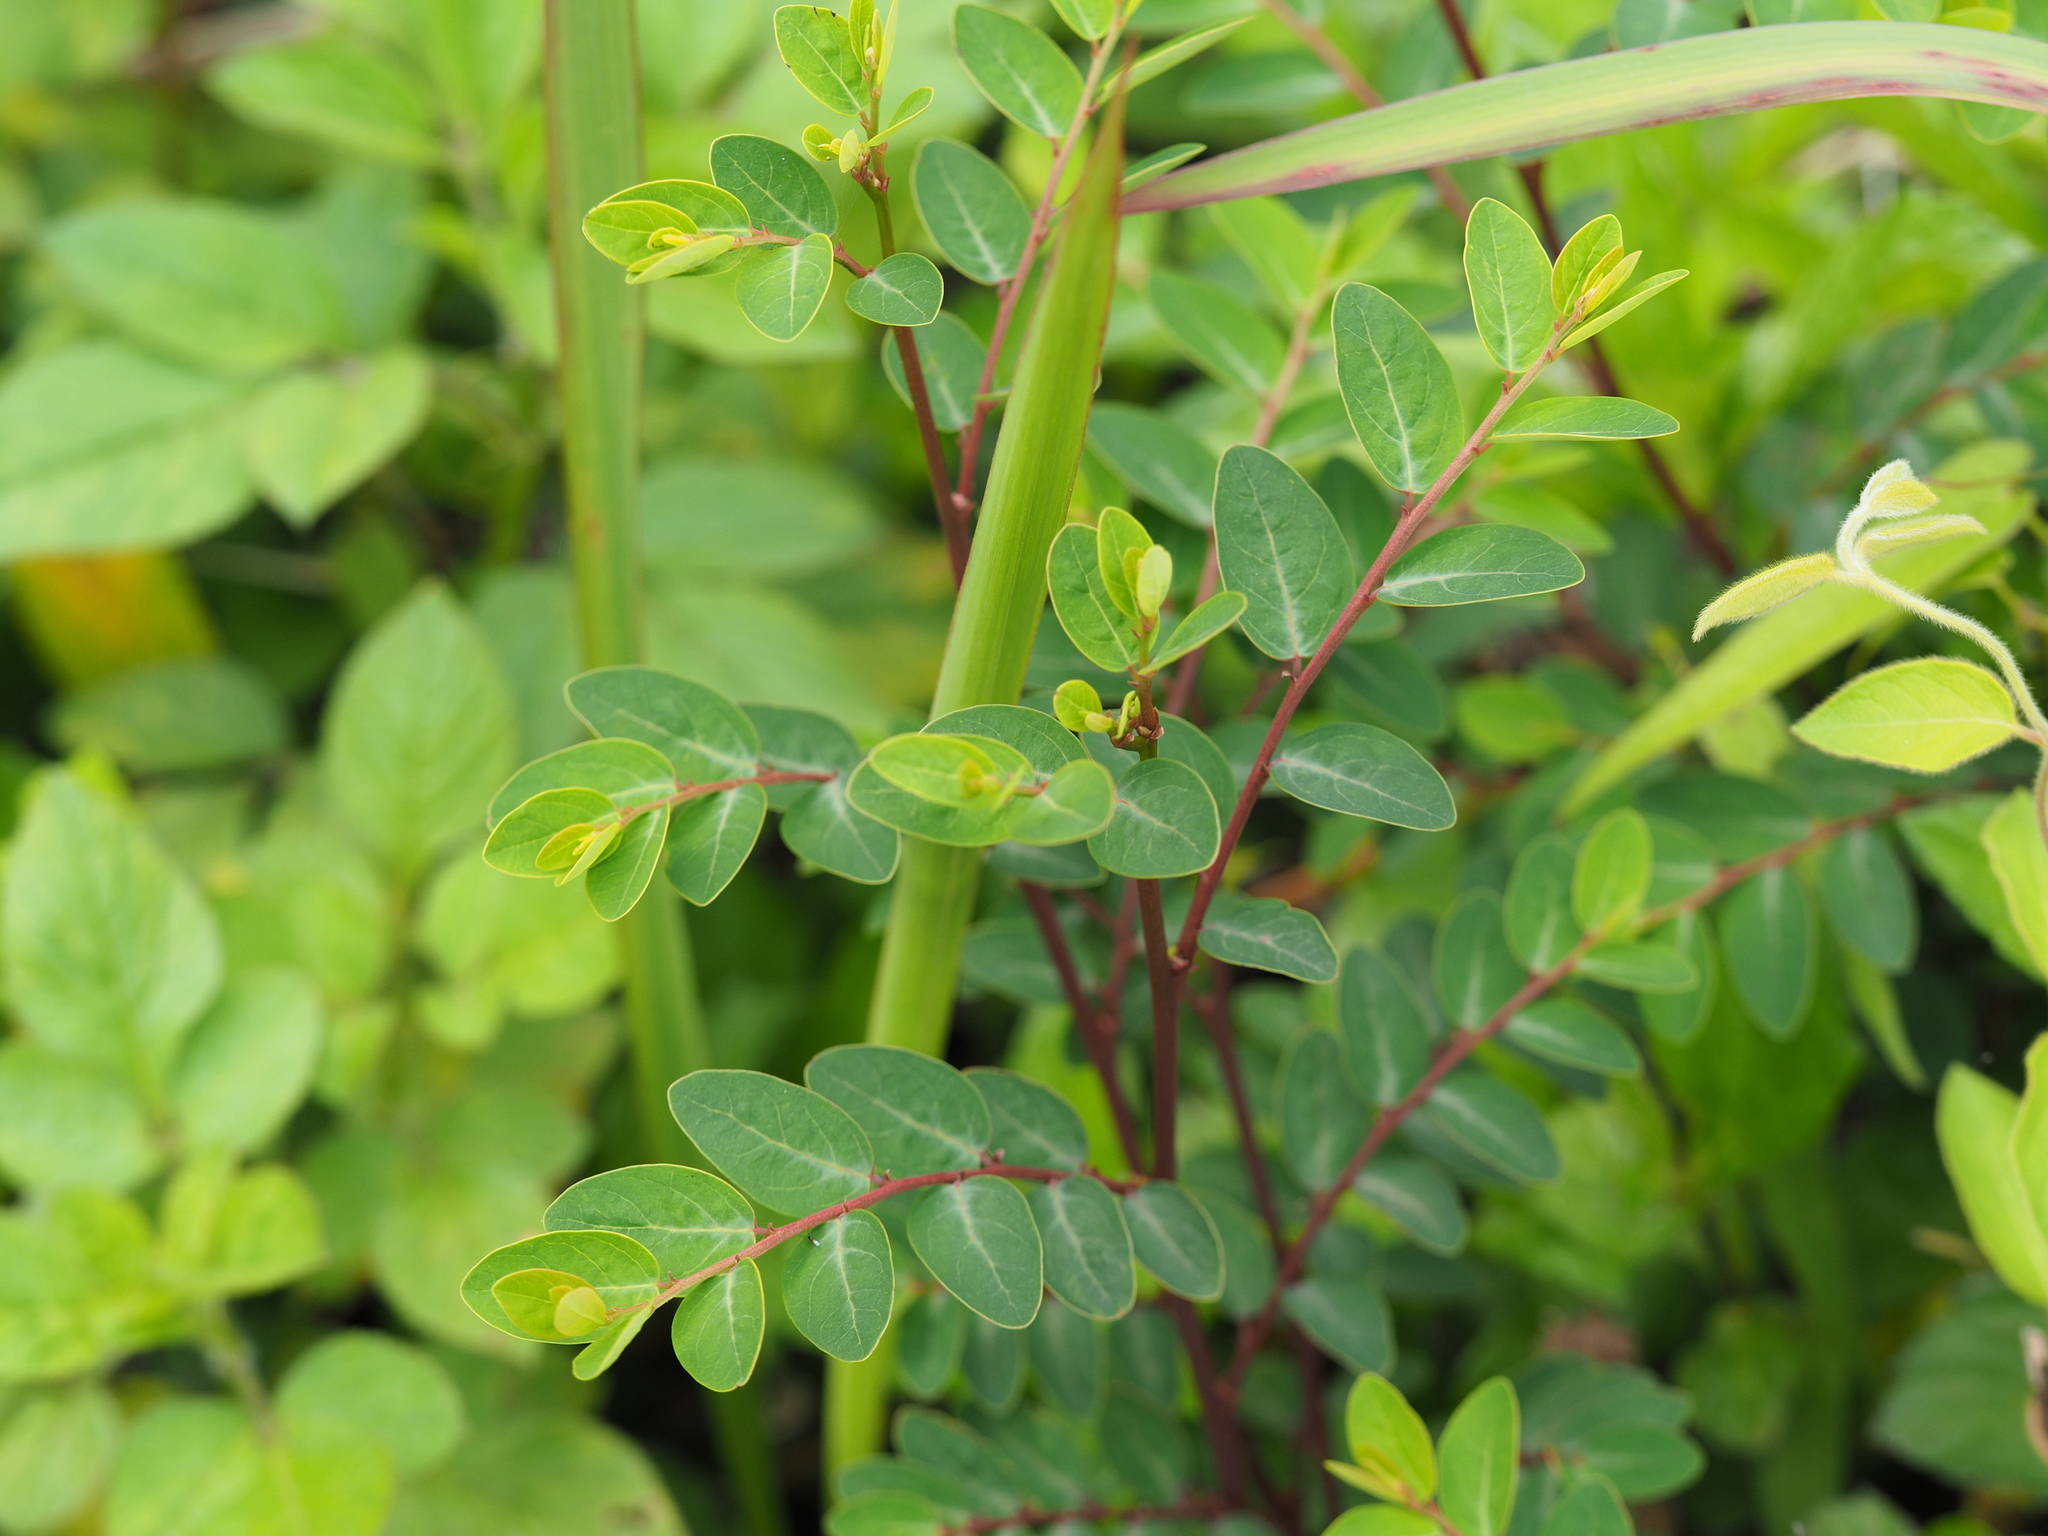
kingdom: Plantae
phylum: Tracheophyta
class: Magnoliopsida
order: Malpighiales
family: Phyllanthaceae
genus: Breynia
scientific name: Breynia officinalis
